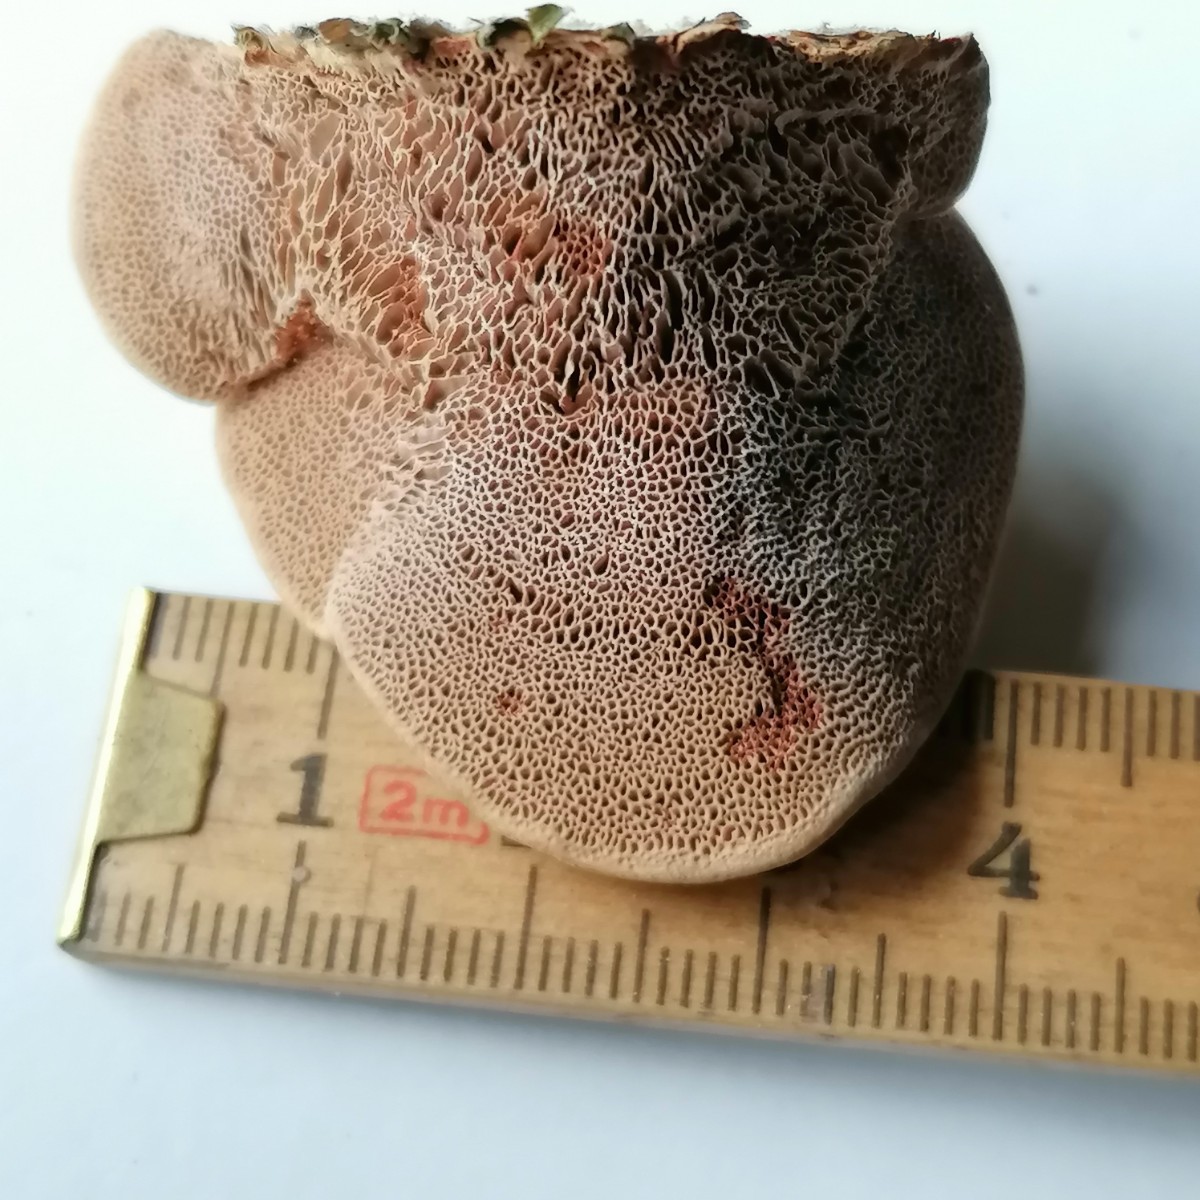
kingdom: Fungi
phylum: Basidiomycota
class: Agaricomycetes
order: Polyporales
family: Phanerochaetaceae
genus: Hapalopilus
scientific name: Hapalopilus rutilans
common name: rødlig okkerporesvamp
